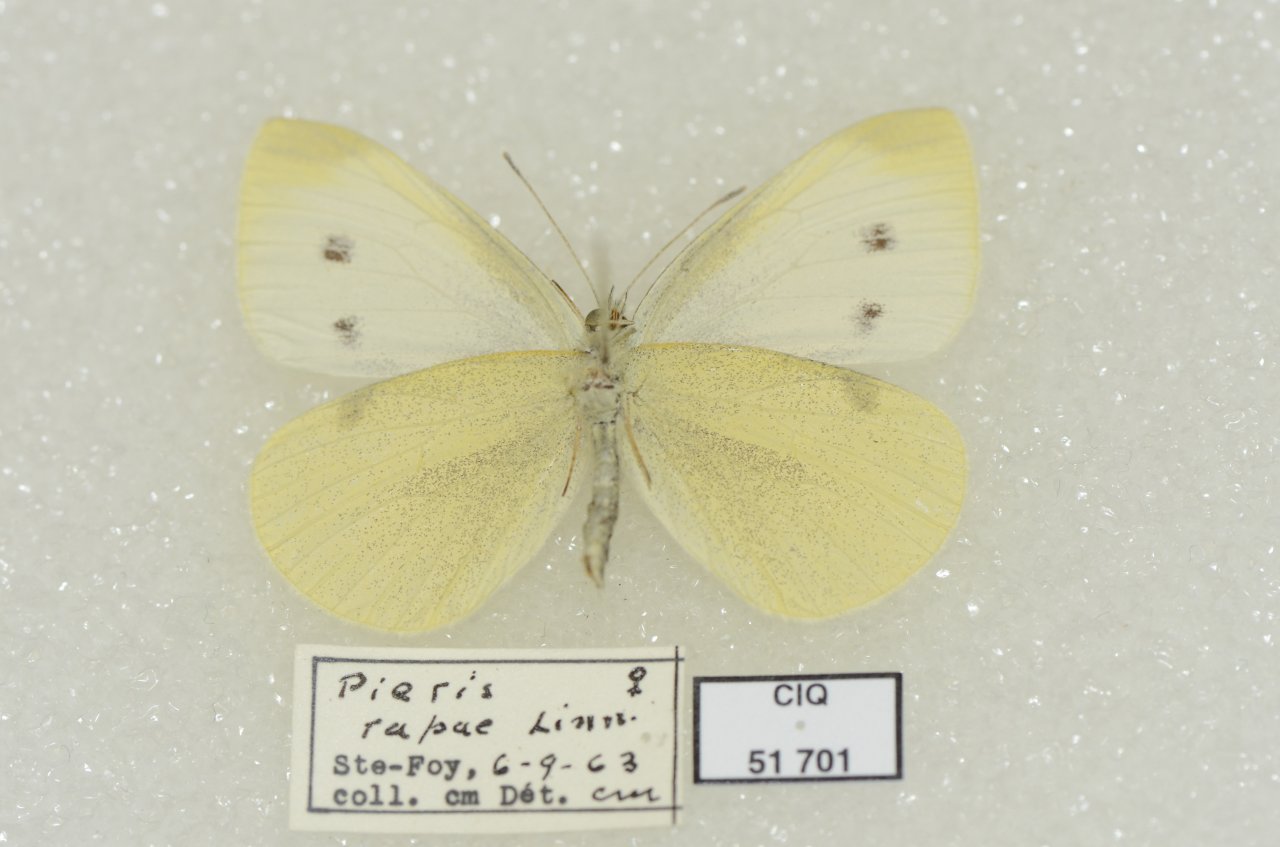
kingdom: Animalia
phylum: Arthropoda
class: Insecta
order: Lepidoptera
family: Pieridae
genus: Pieris
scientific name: Pieris rapae
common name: Cabbage White
